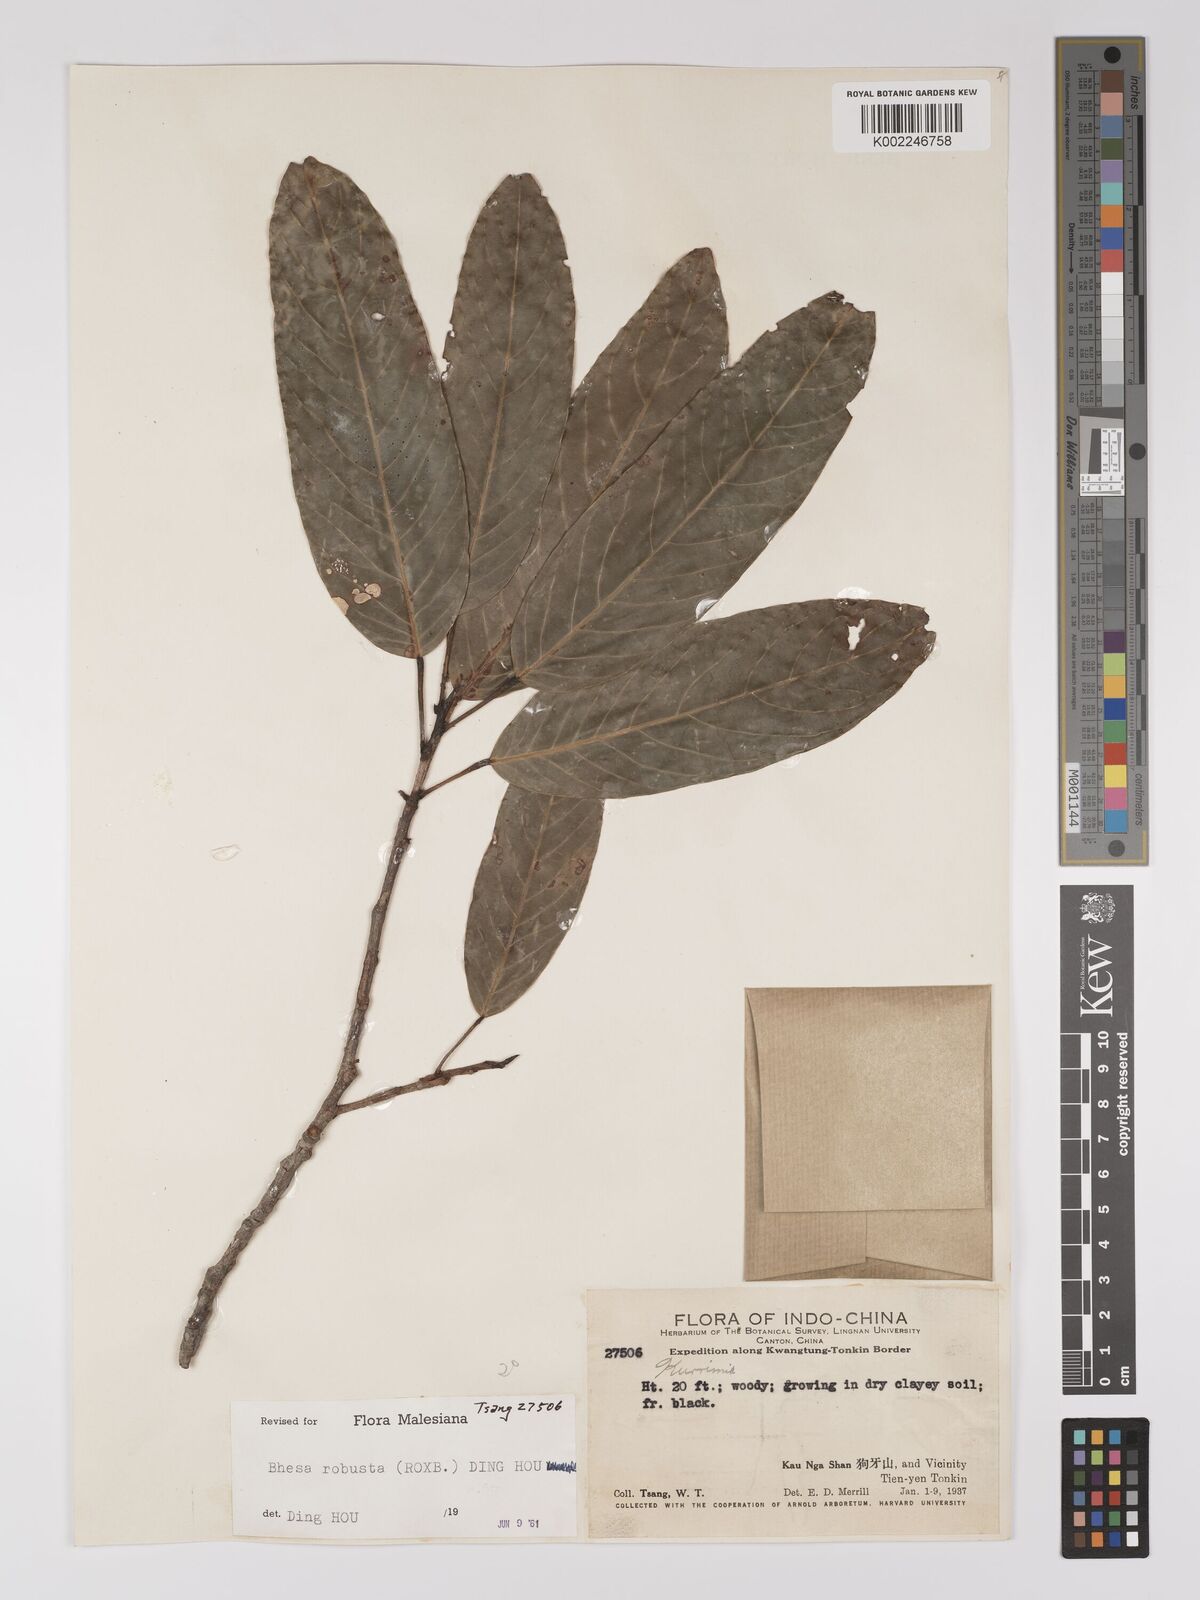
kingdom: Plantae
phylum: Tracheophyta
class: Magnoliopsida
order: Malpighiales
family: Centroplacaceae
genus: Bhesa
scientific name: Bhesa robusta
